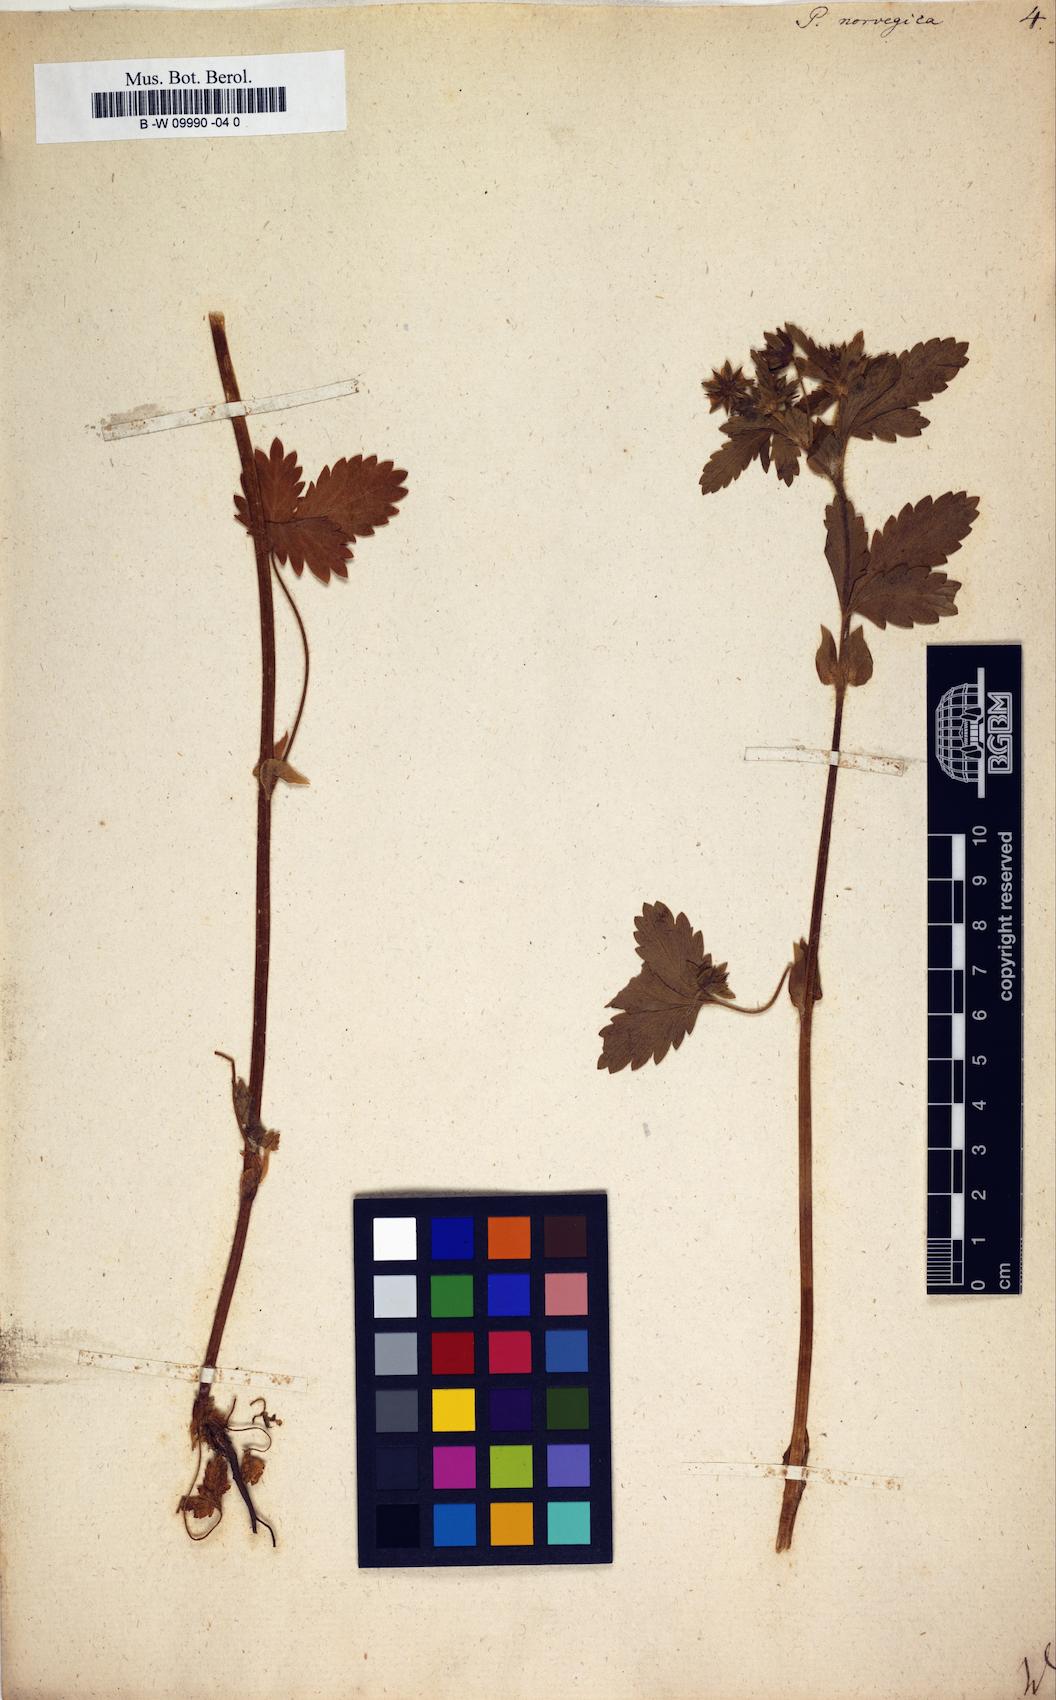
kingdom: Plantae
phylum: Tracheophyta
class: Magnoliopsida
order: Rosales
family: Rosaceae
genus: Potentilla
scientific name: Potentilla norvegica
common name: Ternate-leaved cinquefoil
